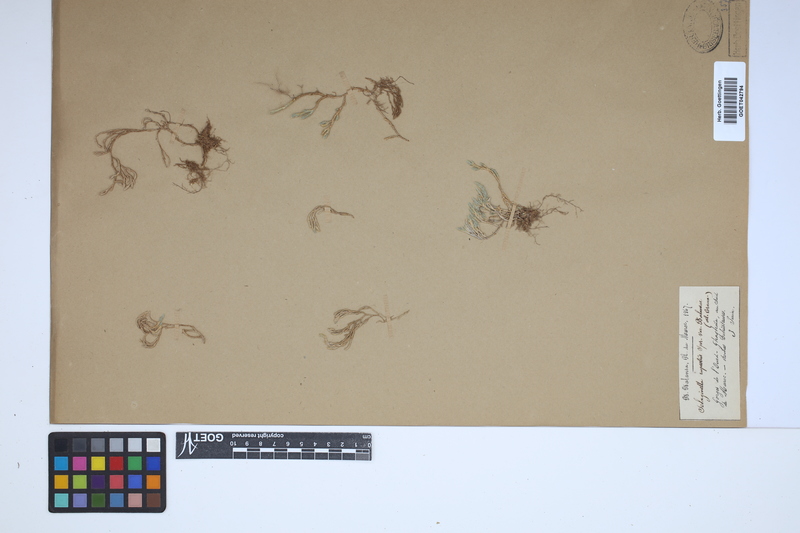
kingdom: Plantae
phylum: Tracheophyta
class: Lycopodiopsida
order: Selaginellales
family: Selaginellaceae
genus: Selaginella
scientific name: Selaginella rupestris
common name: Dwarf spikemoss
